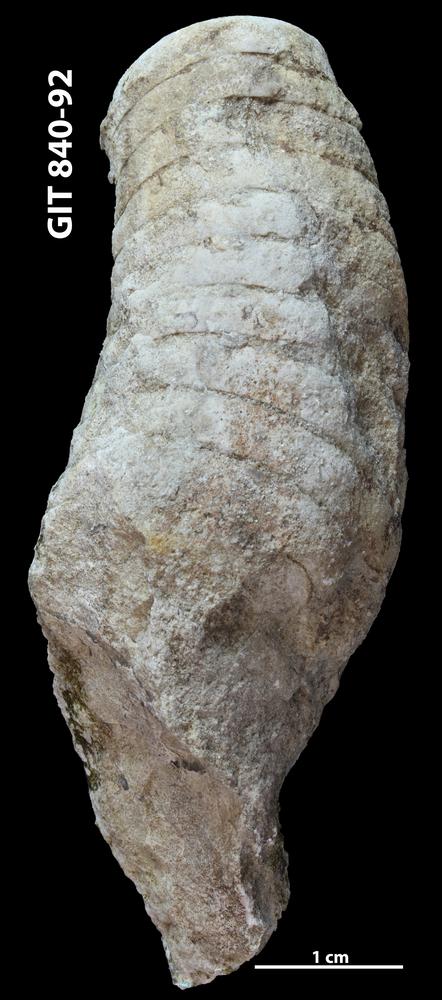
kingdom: Animalia
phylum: Mollusca
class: Cephalopoda
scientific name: Cephalopoda
